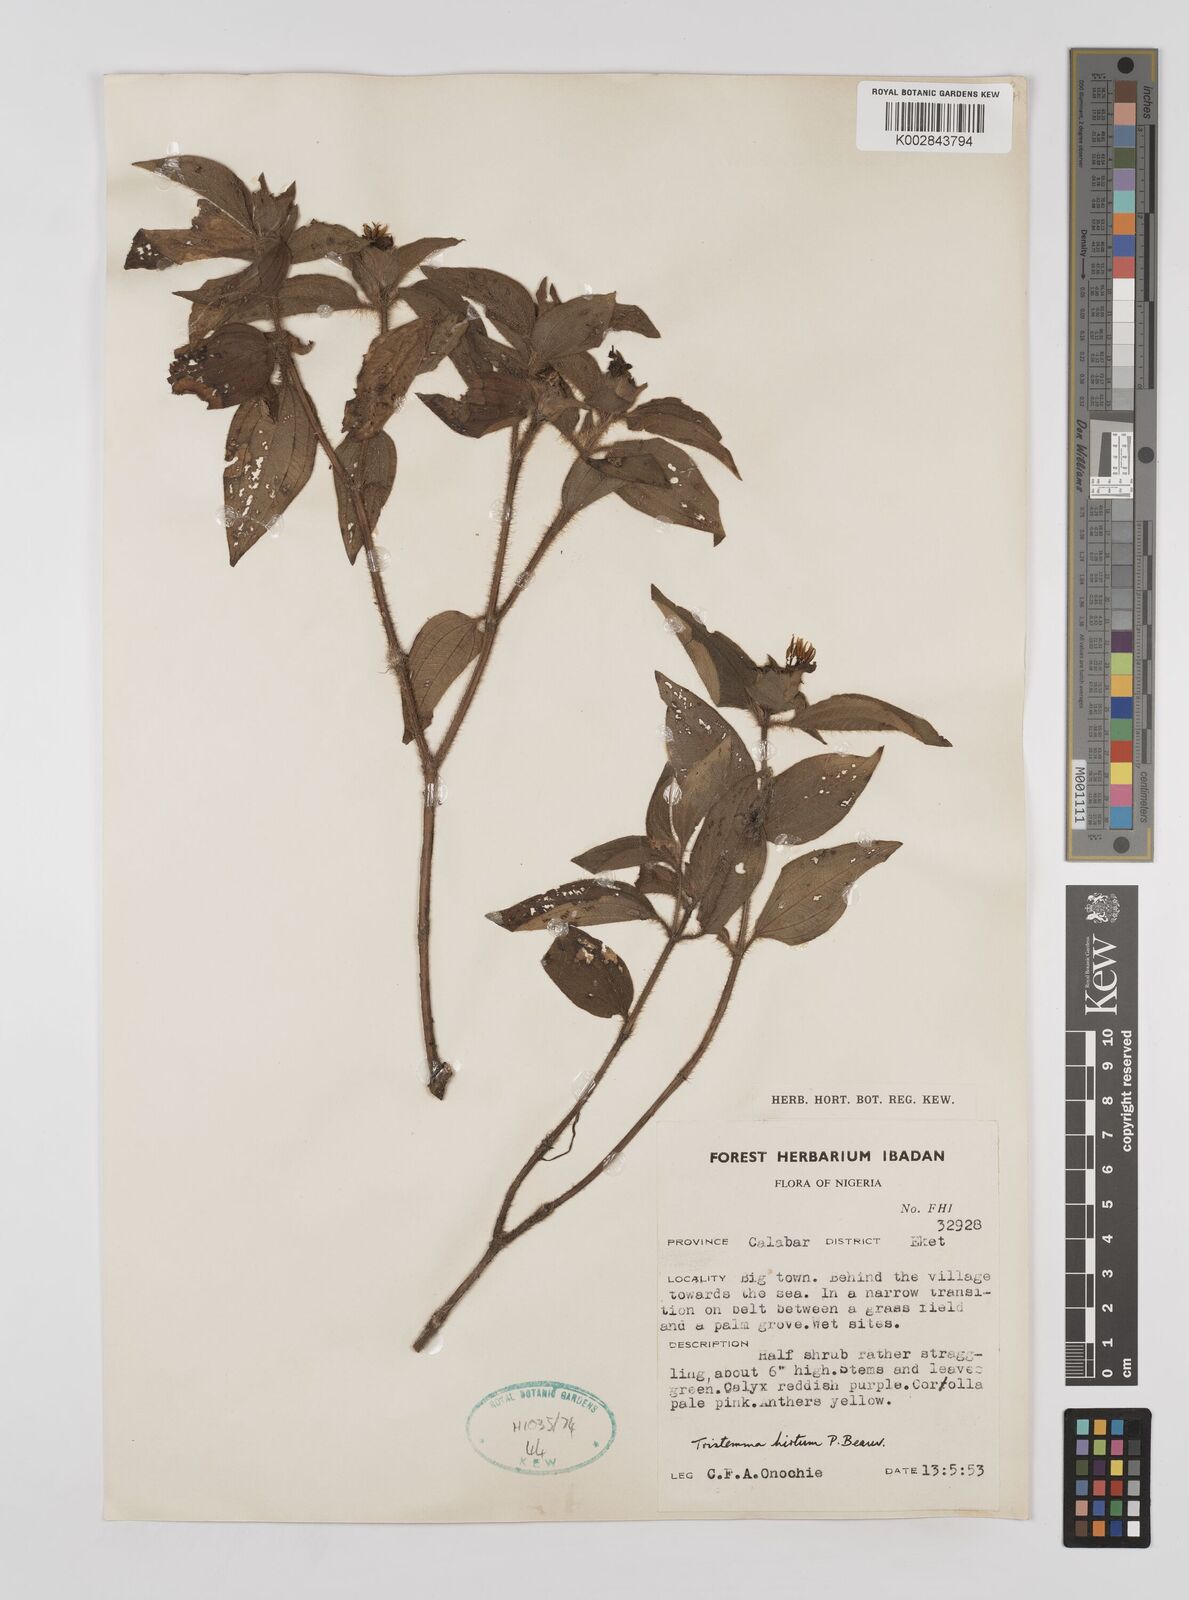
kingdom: Plantae
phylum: Tracheophyta
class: Magnoliopsida
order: Myrtales
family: Melastomataceae
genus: Tristemma
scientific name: Tristemma hirtum
